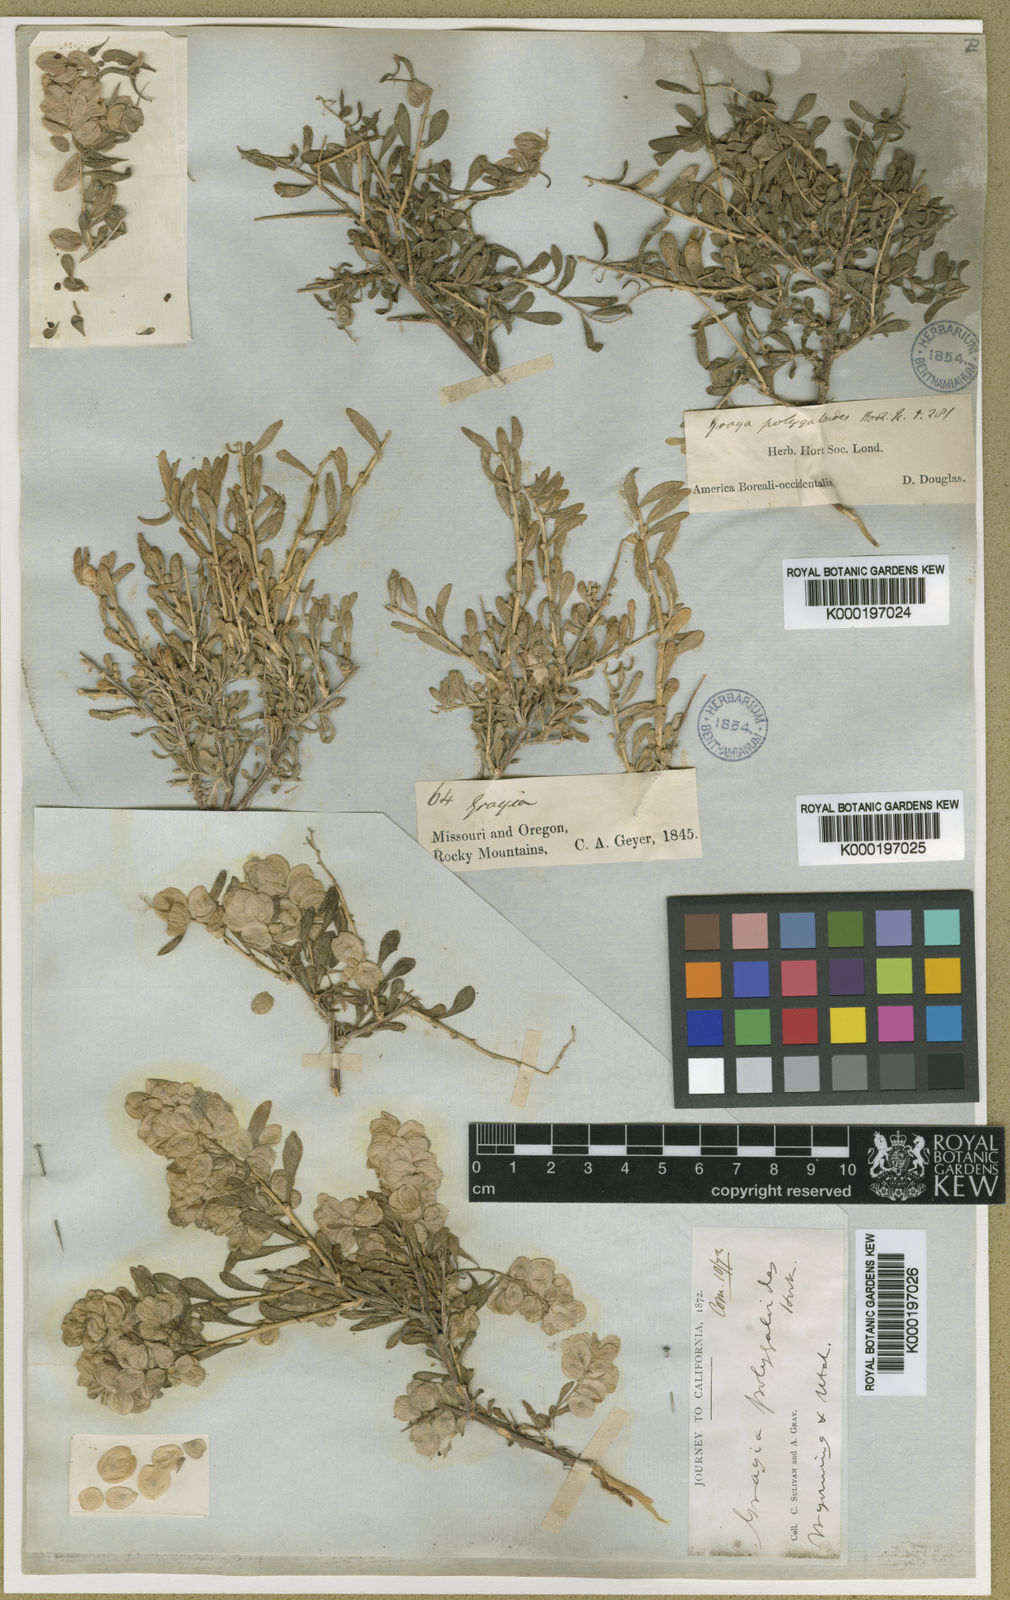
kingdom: Plantae
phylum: Tracheophyta
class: Magnoliopsida
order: Caryophyllales
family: Amaranthaceae
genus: Grayia
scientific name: Grayia spinosa
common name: Spiny hopsage
